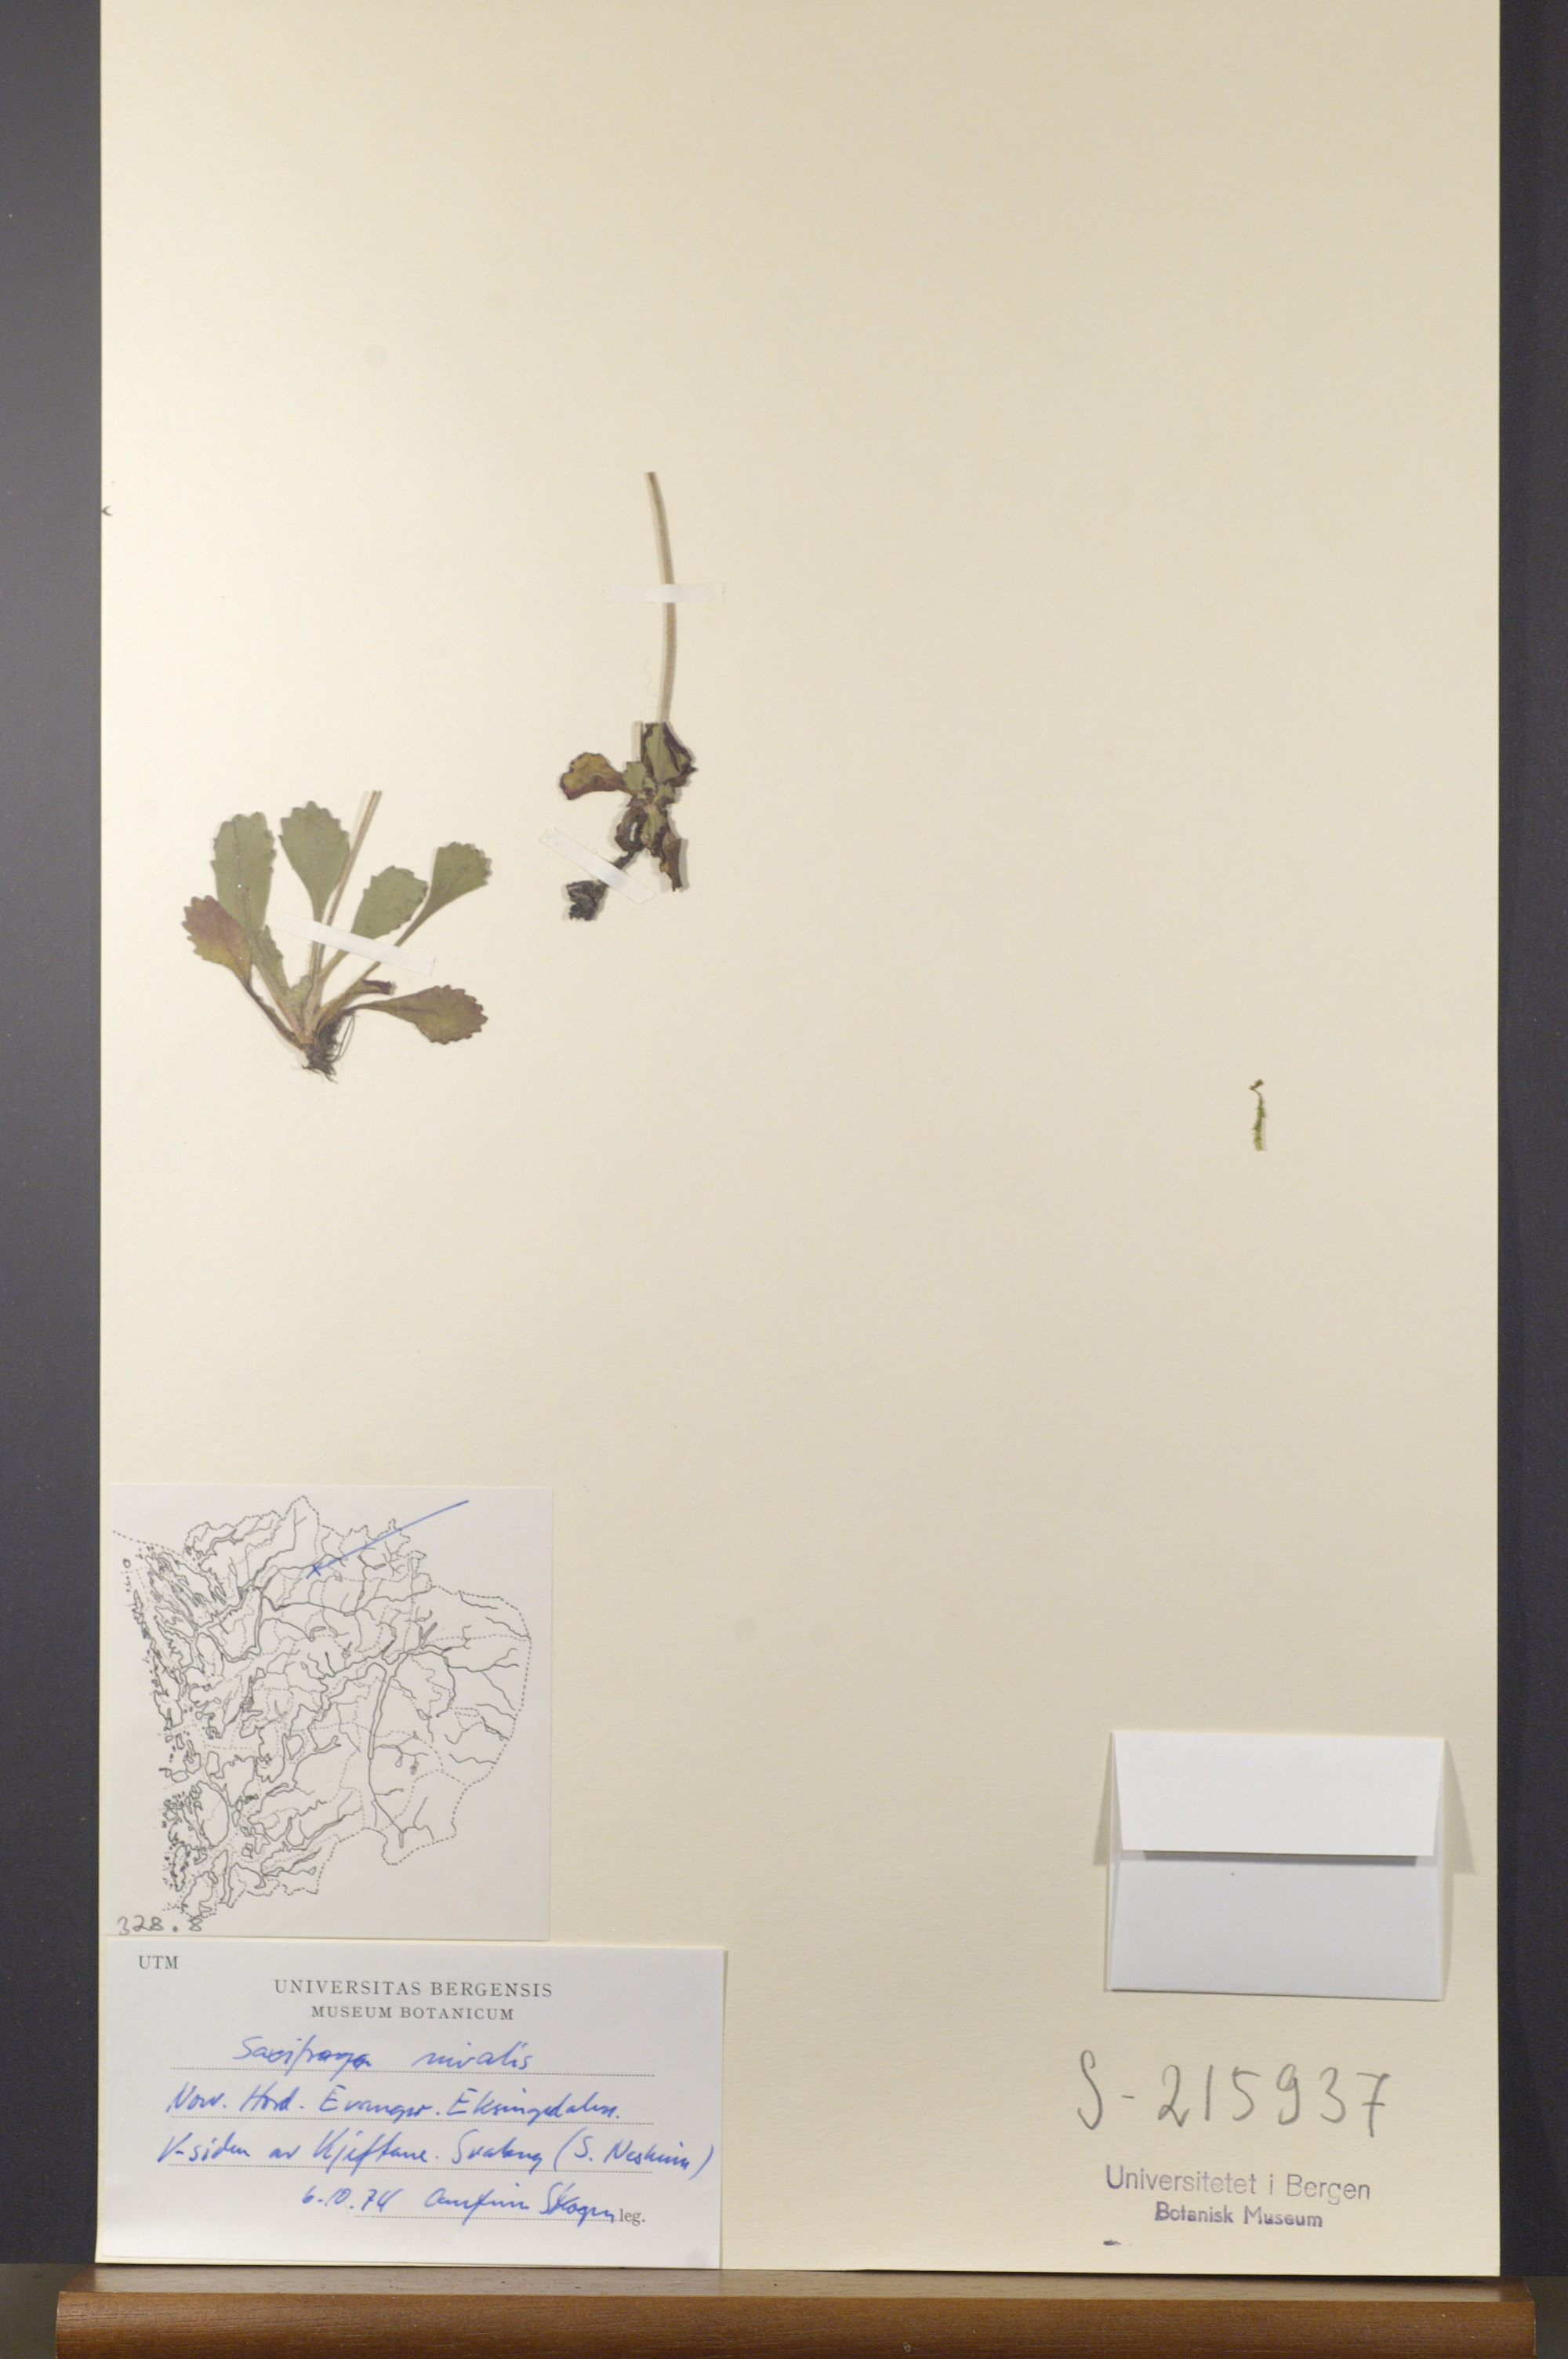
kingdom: Plantae
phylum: Tracheophyta
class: Magnoliopsida
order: Saxifragales
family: Saxifragaceae
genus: Micranthes
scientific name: Micranthes nivalis
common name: Alpine saxifrage
